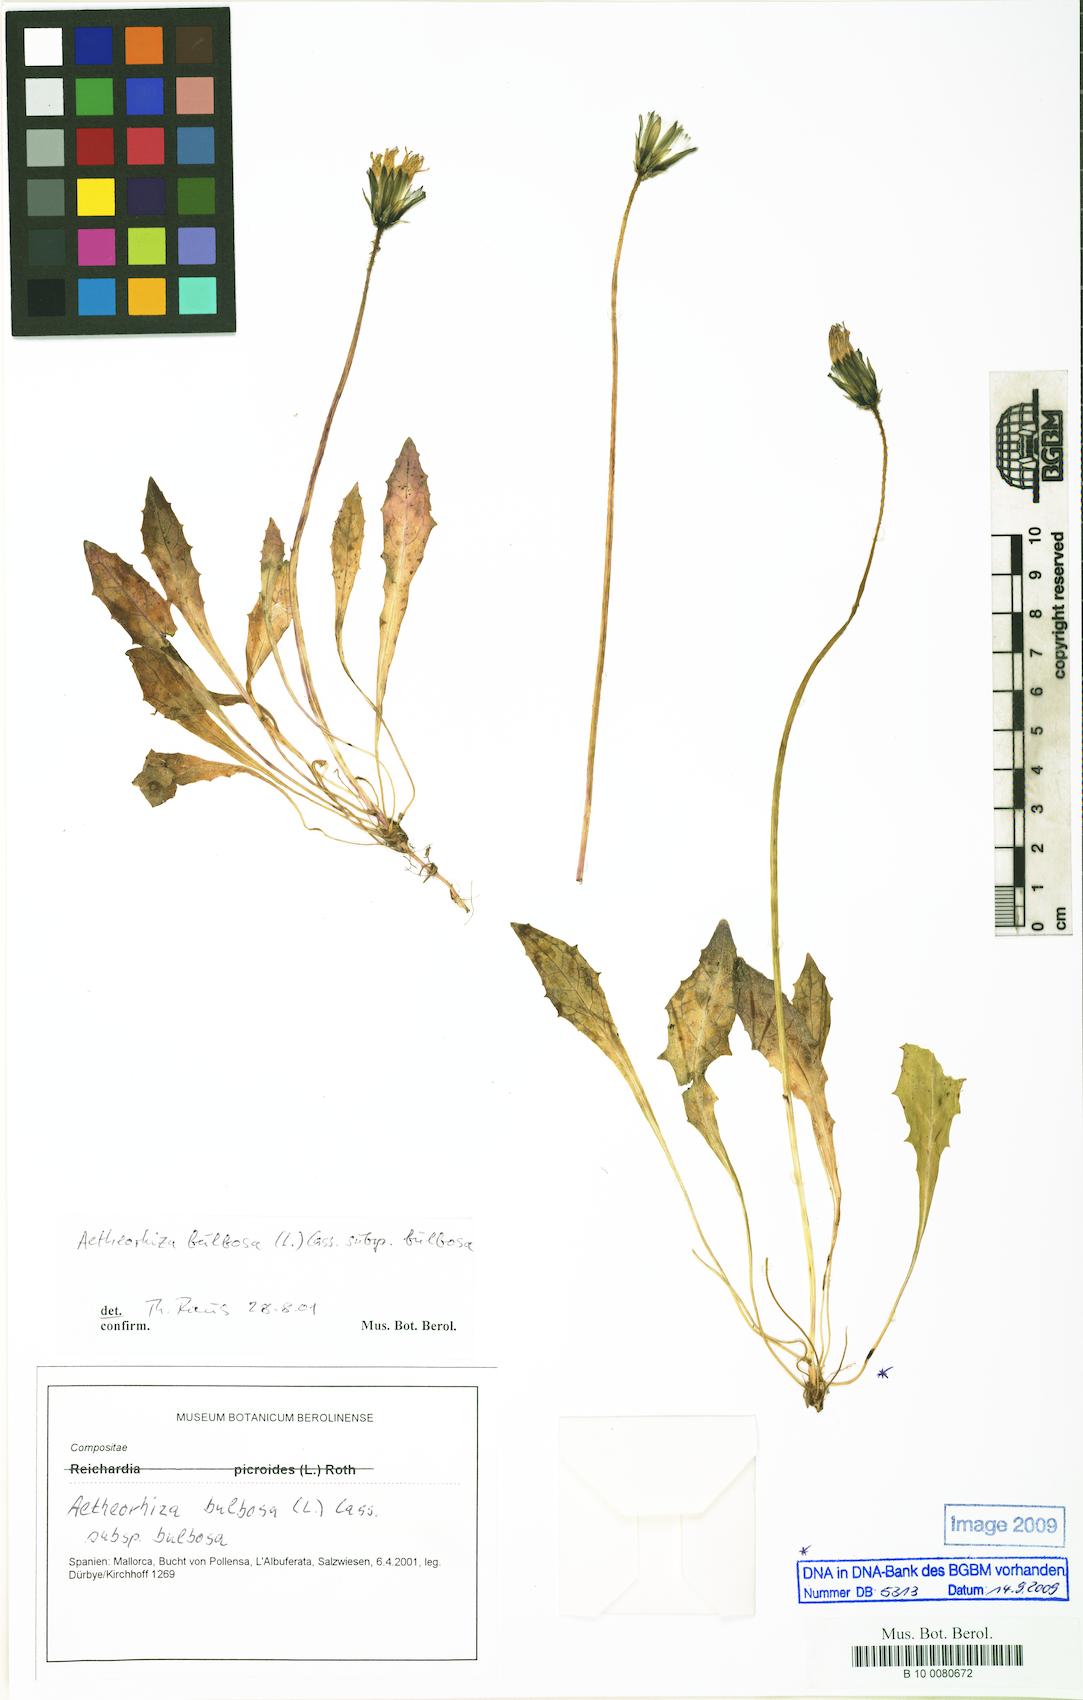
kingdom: Plantae
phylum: Tracheophyta
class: Magnoliopsida
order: Asterales
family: Asteraceae
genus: Aetheorhiza
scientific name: Aetheorhiza bulbosa
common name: Tuberous hawk's-beard
